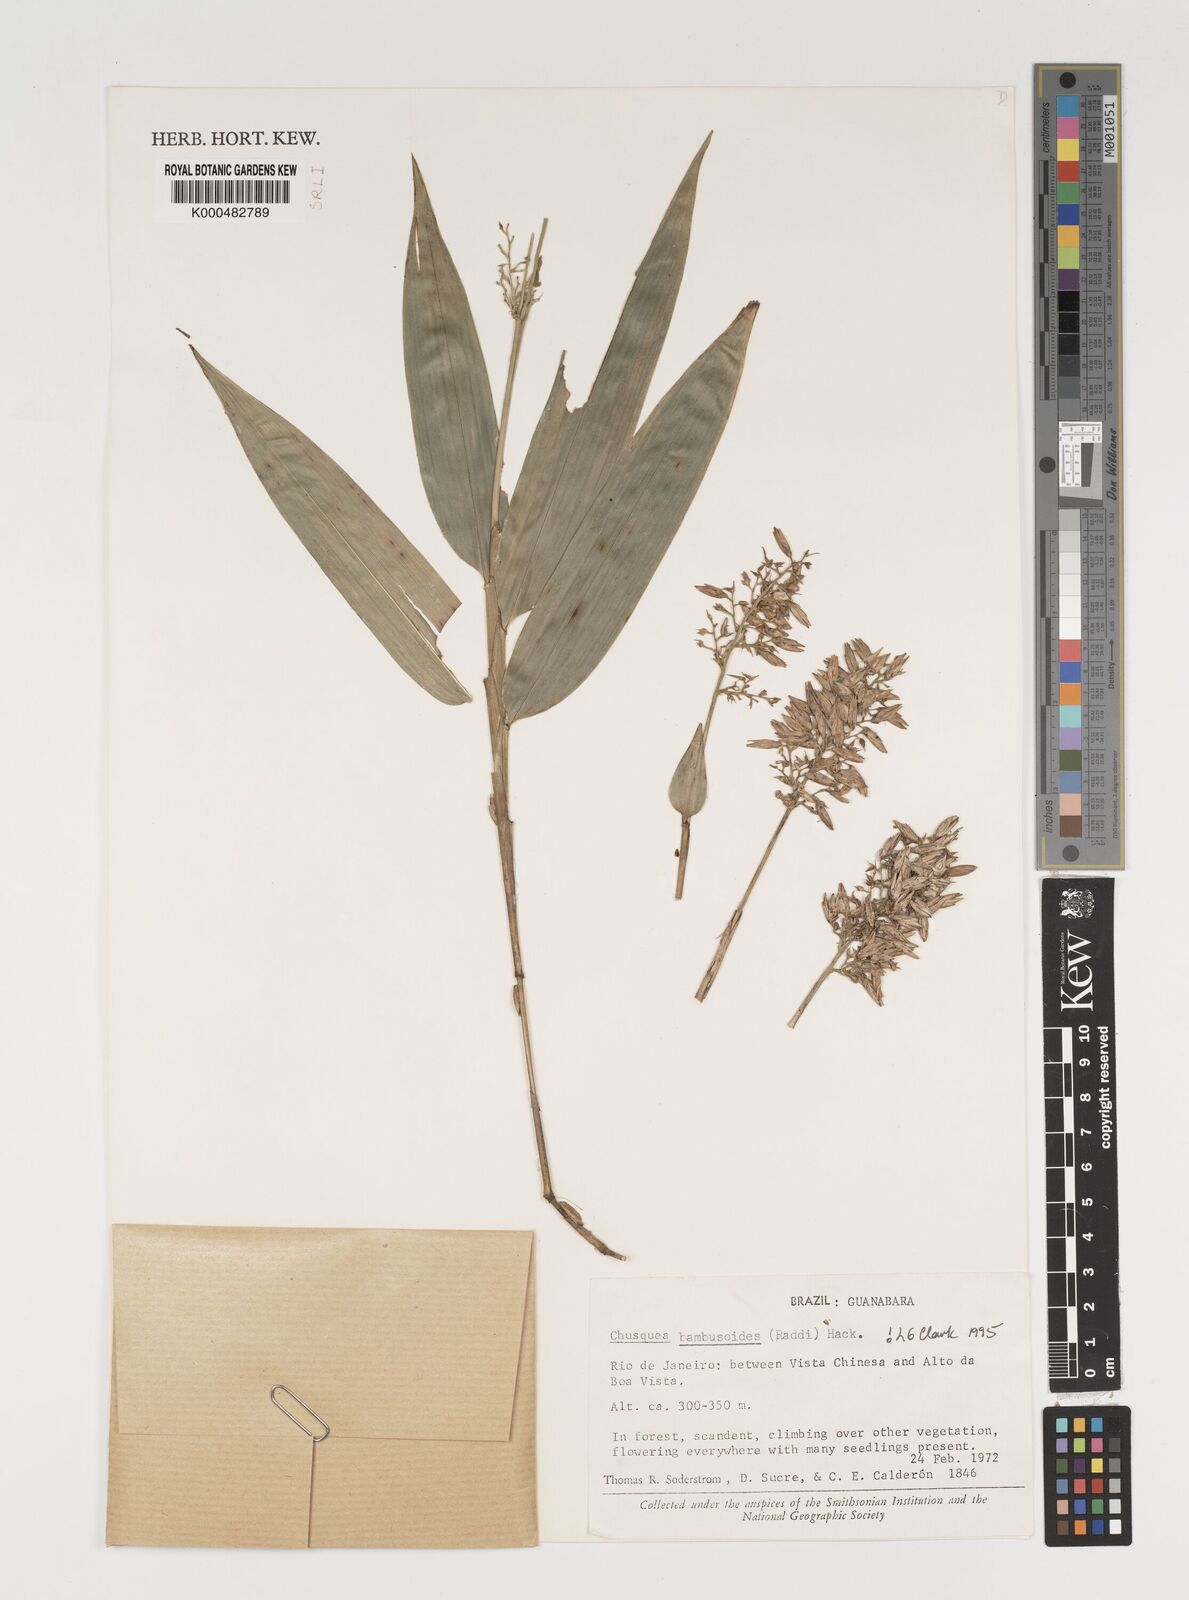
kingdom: Plantae
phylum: Tracheophyta
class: Liliopsida
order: Poales
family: Poaceae
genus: Chusquea
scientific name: Chusquea bambusoides
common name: Brazil scrambling bamboo
